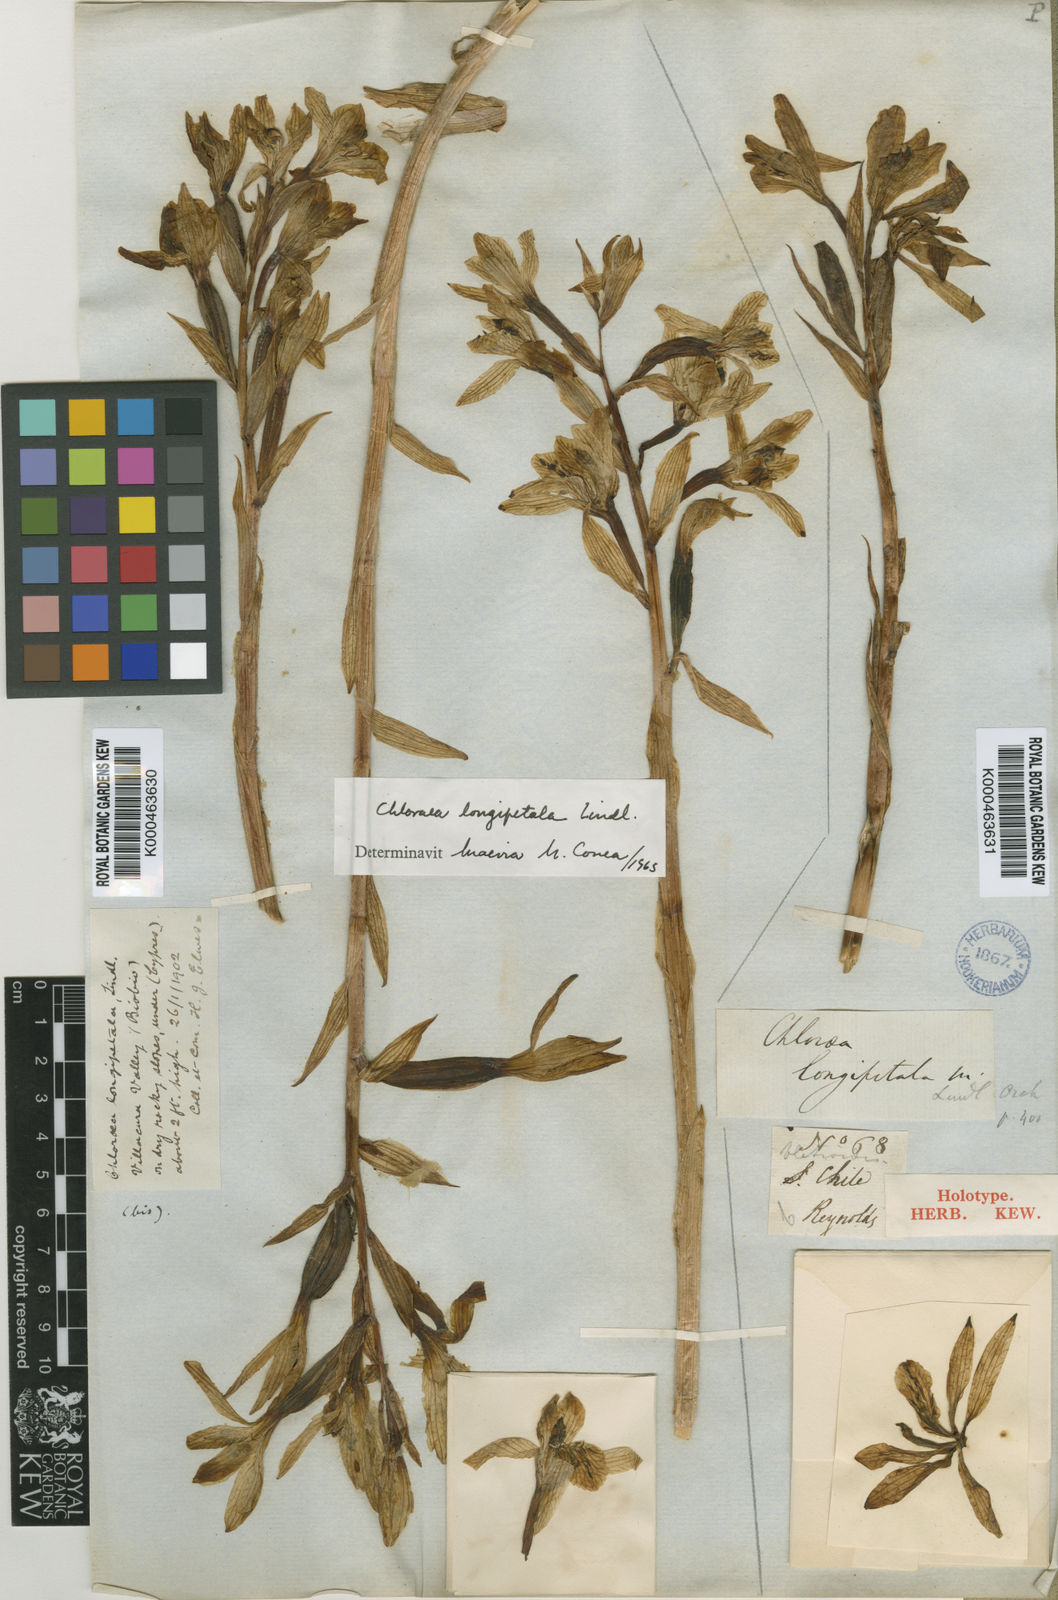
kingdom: Plantae
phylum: Tracheophyta
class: Liliopsida
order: Asparagales
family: Orchidaceae
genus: Chloraea
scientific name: Chloraea longipetala
